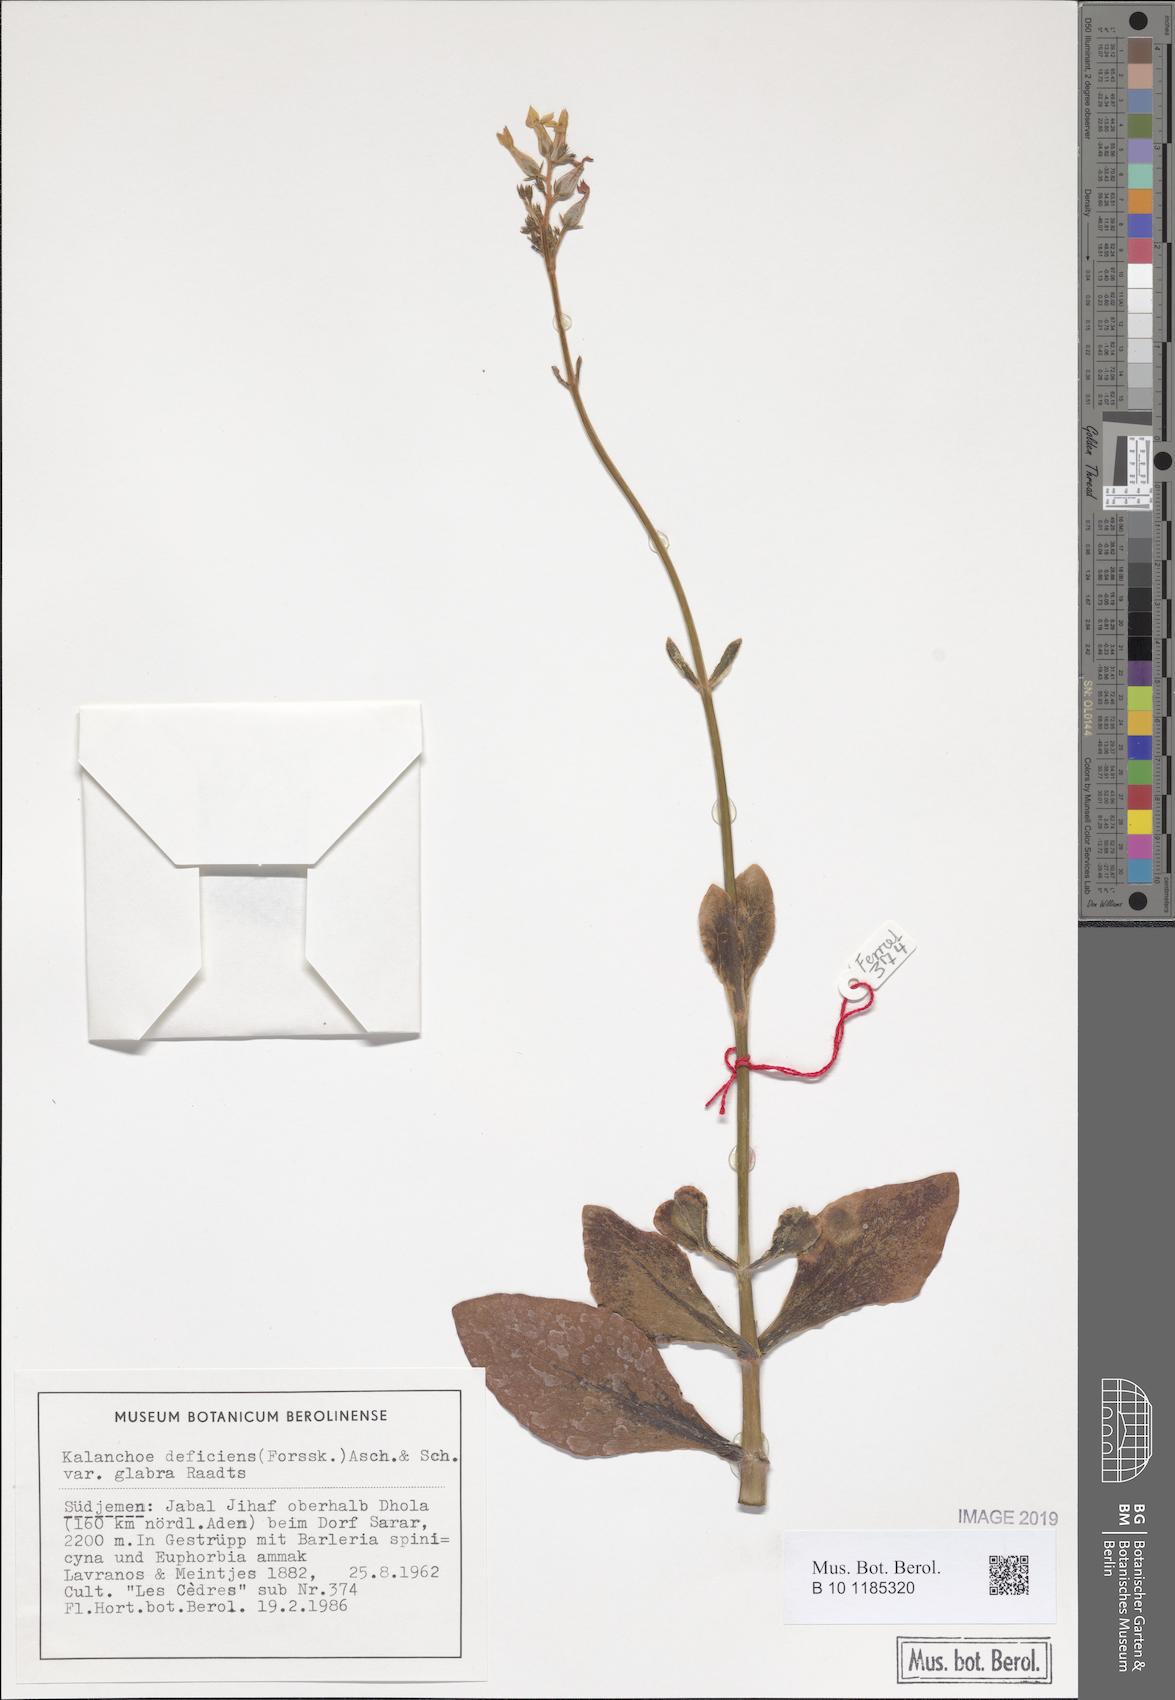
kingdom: Plantae
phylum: Tracheophyta
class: Magnoliopsida
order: Saxifragales
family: Crassulaceae
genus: Kalanchoe
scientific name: Kalanchoe deficiens
